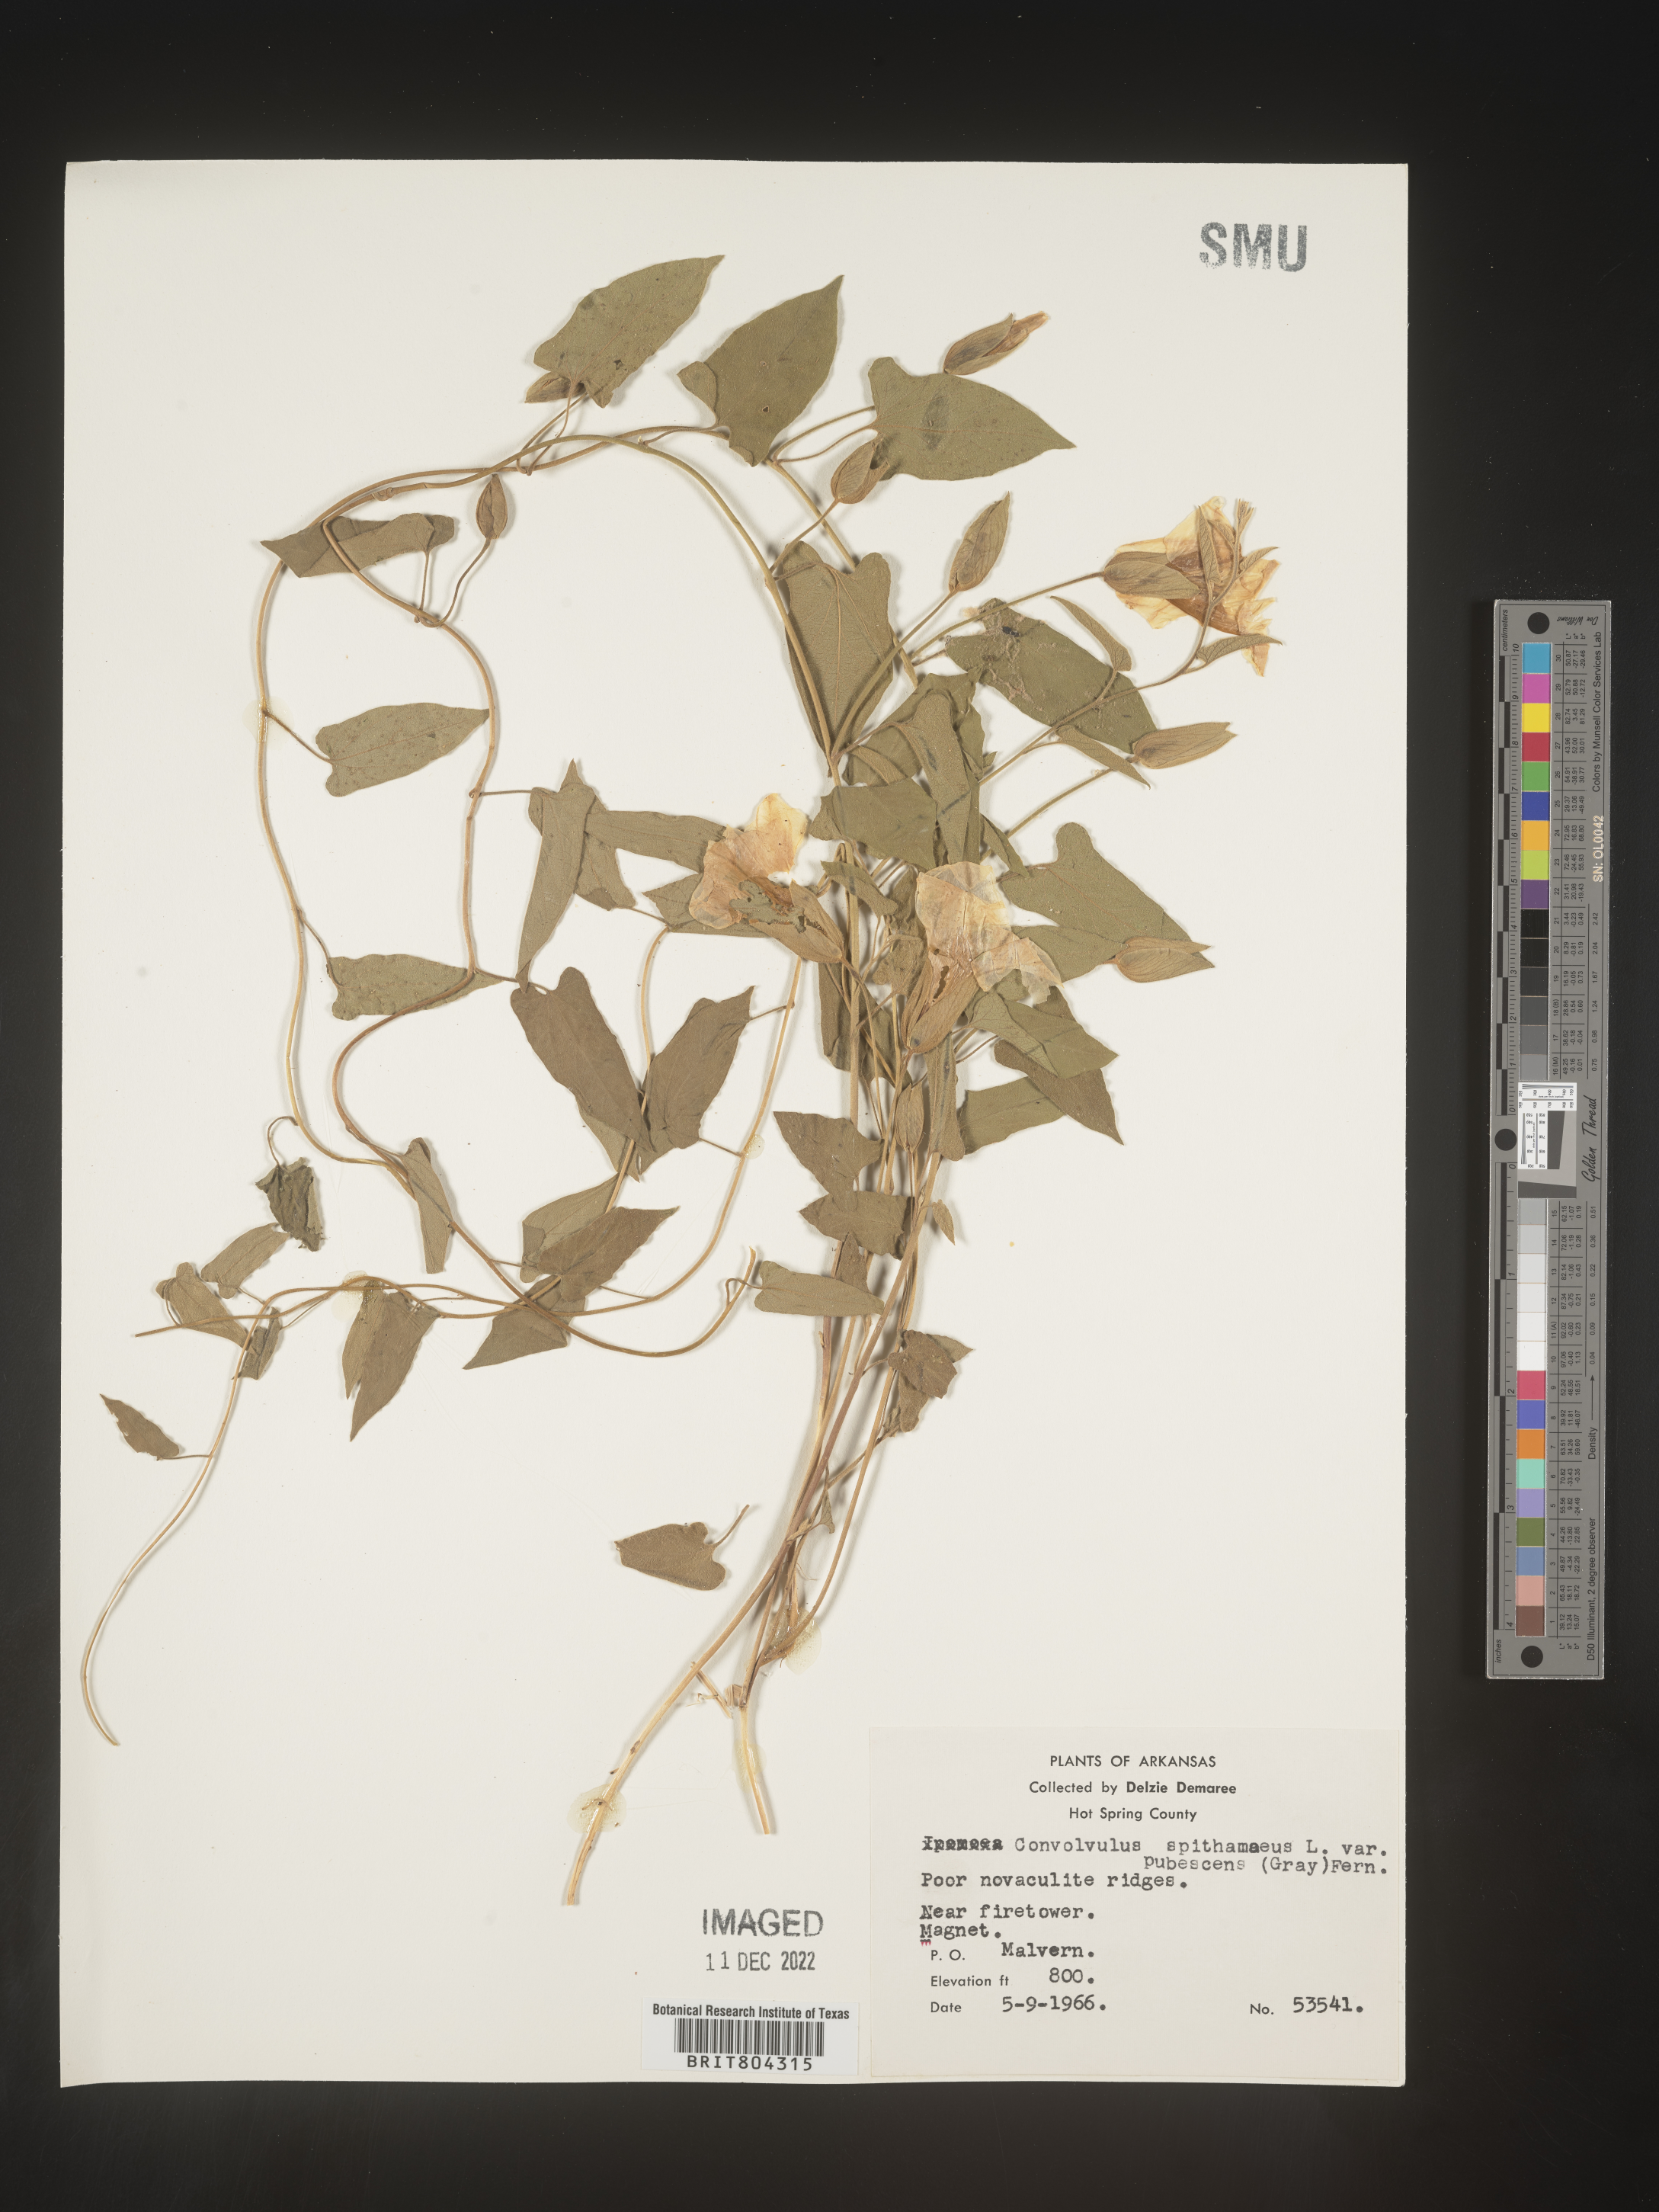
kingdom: Plantae
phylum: Tracheophyta
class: Magnoliopsida
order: Solanales
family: Convolvulaceae
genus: Calystegia
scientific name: Calystegia
